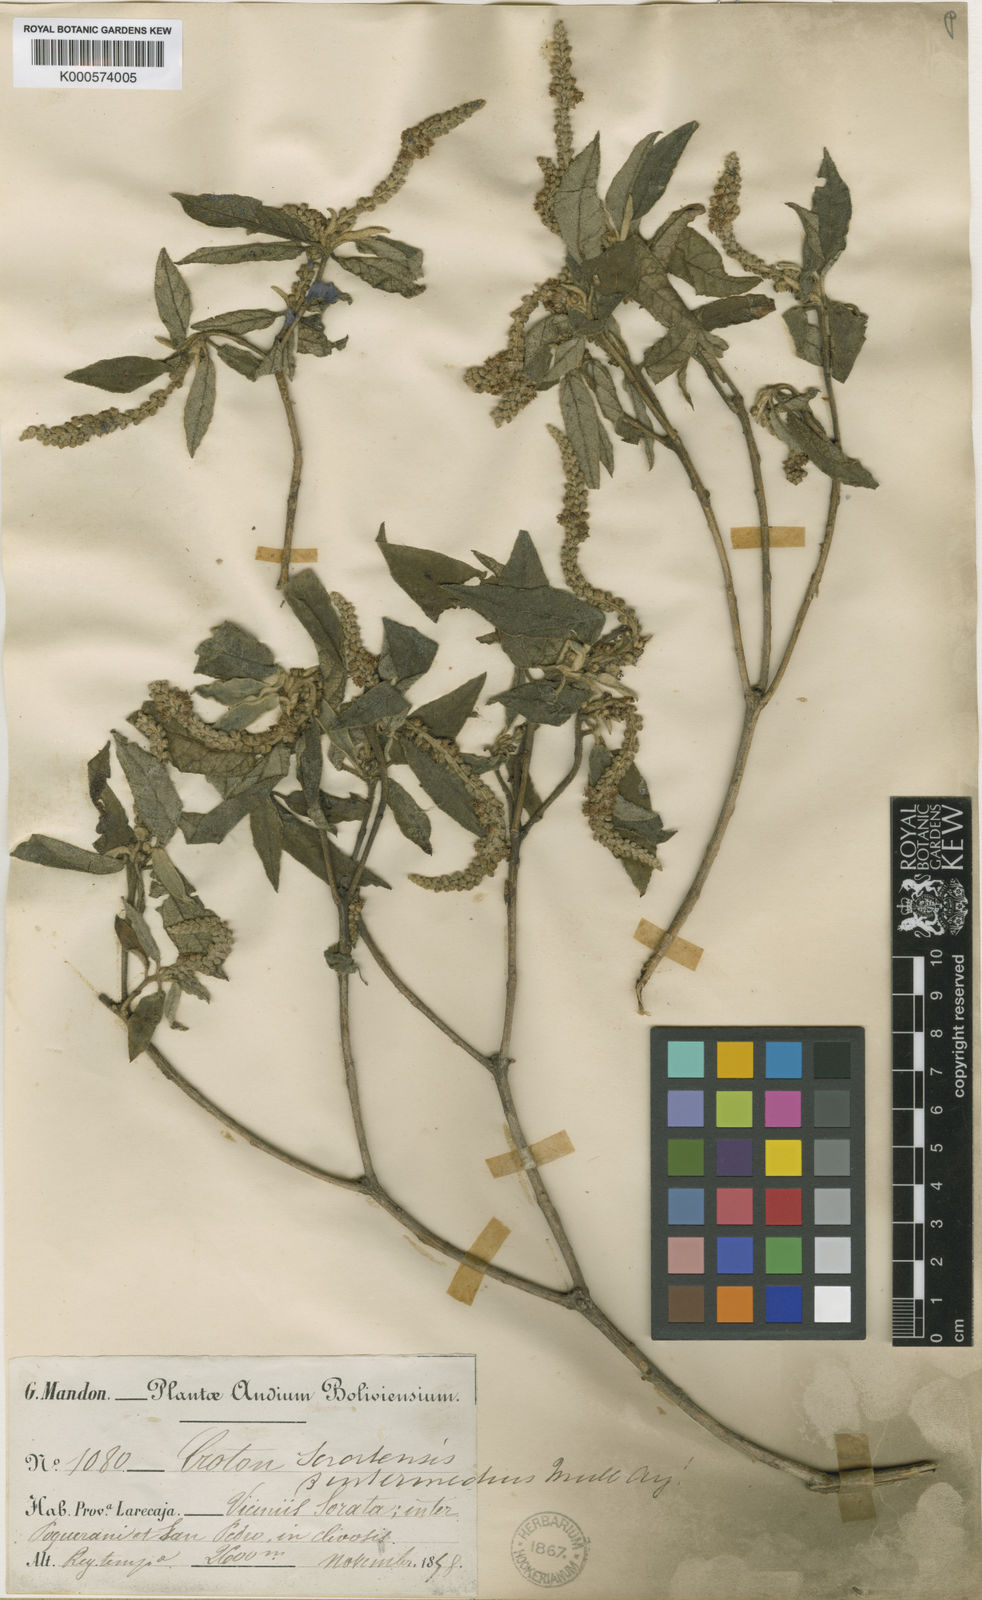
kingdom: Plantae
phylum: Tracheophyta
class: Magnoliopsida
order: Malpighiales
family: Euphorbiaceae
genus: Croton
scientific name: Croton
